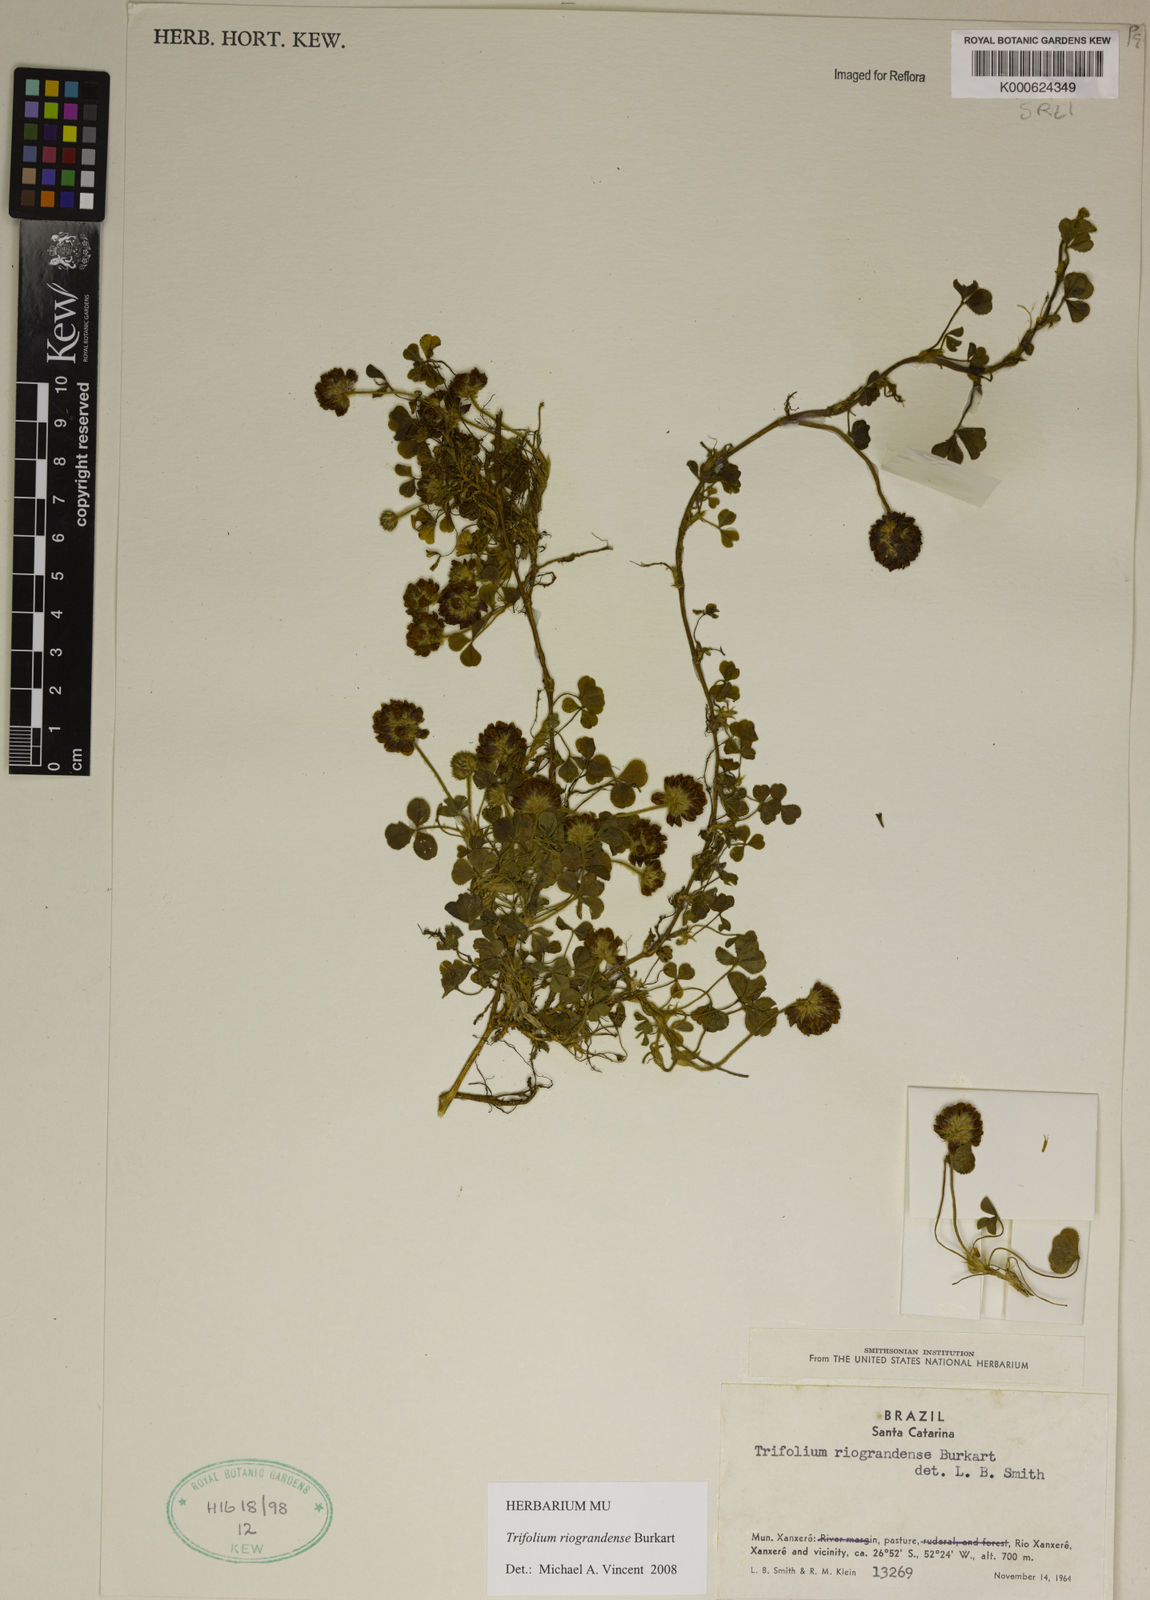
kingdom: Plantae
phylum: Tracheophyta
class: Magnoliopsida
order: Fabales
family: Fabaceae
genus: Trifolium
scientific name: Trifolium riograndense
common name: Rio grande clover
